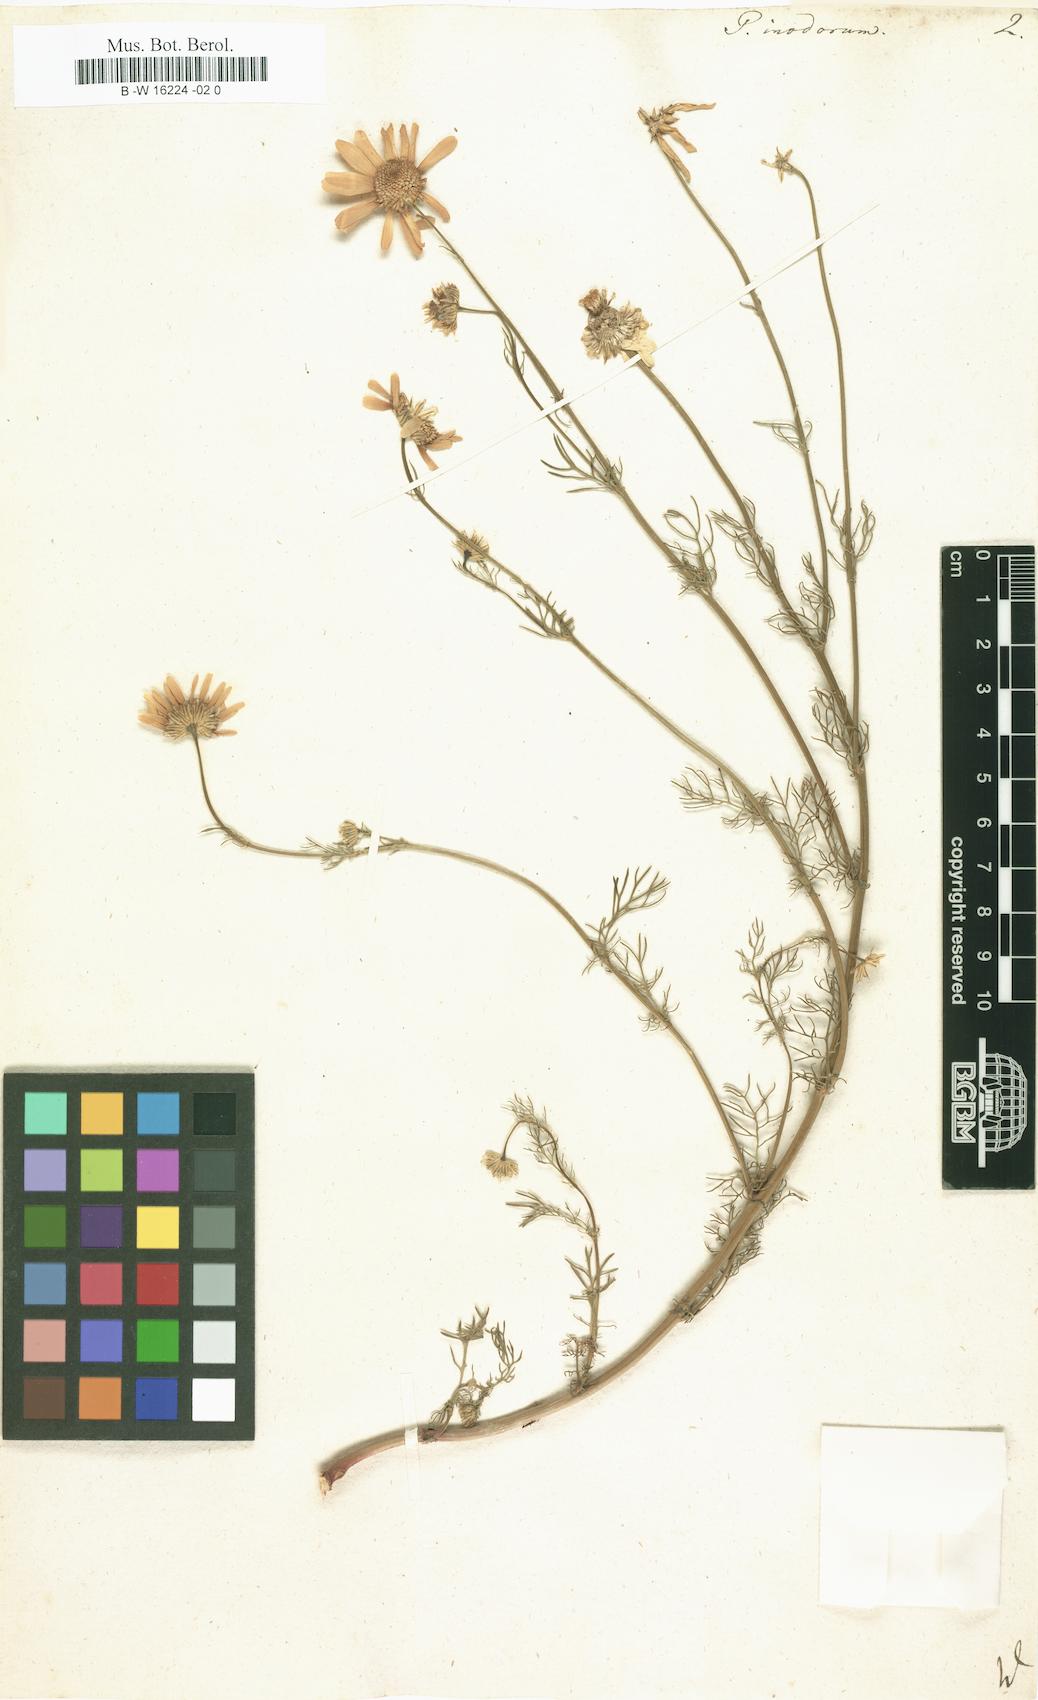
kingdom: Plantae
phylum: Tracheophyta
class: Magnoliopsida
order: Asterales
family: Asteraceae
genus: Tripleurospermum
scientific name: Tripleurospermum inodorum
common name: Scentless mayweed
